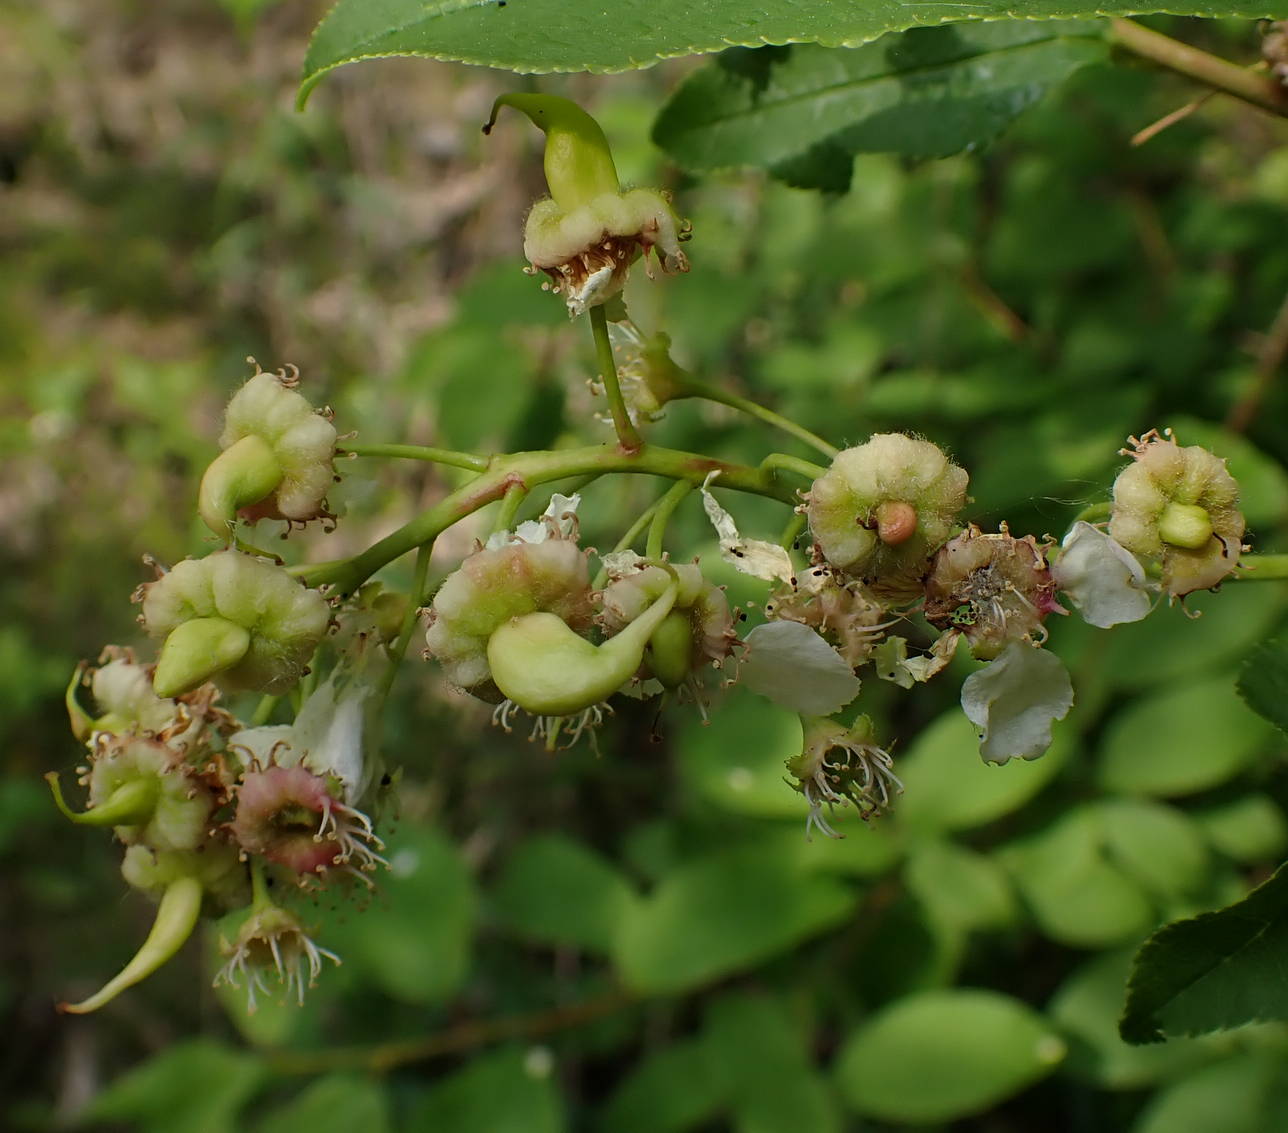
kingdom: Fungi
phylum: Ascomycota
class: Taphrinomycetes
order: Taphrinales
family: Taphrinaceae
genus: Taphrina
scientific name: Taphrina padi
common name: Bird cherry pocket
